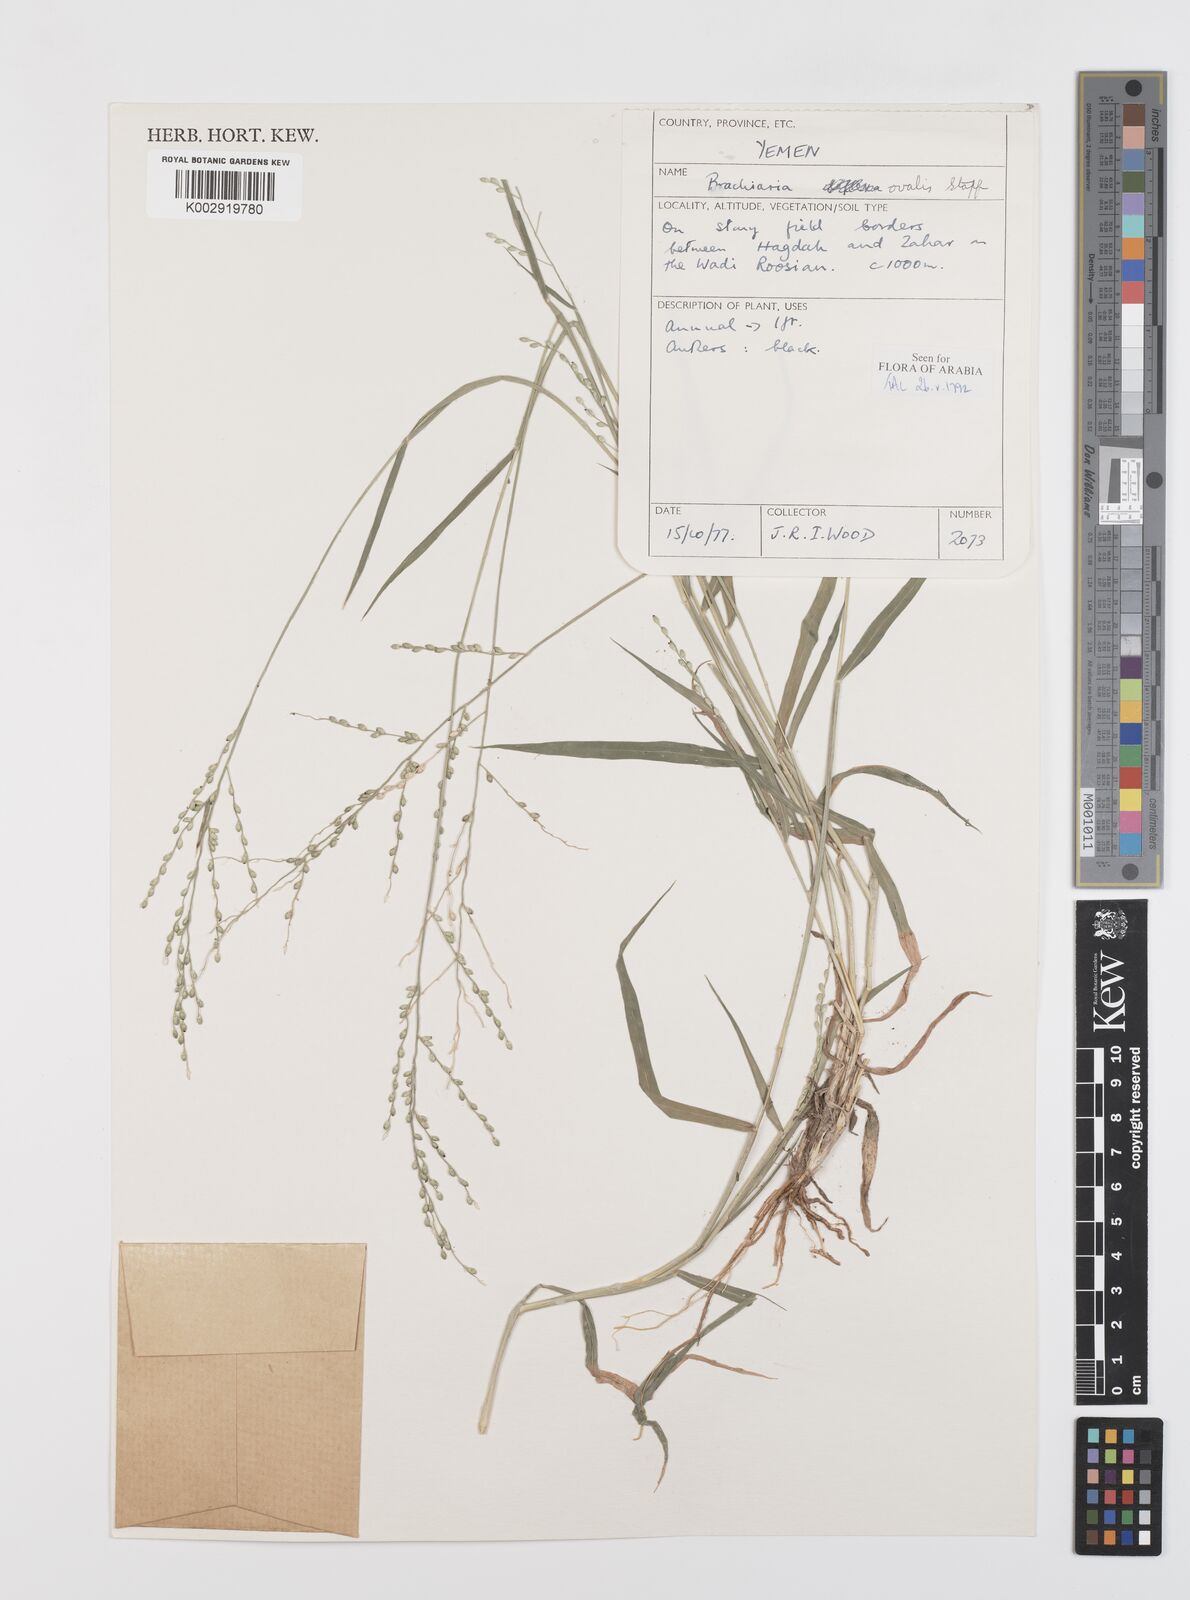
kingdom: Plantae
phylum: Tracheophyta
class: Liliopsida
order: Poales
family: Poaceae
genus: Urochloa
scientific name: Urochloa ovalis
